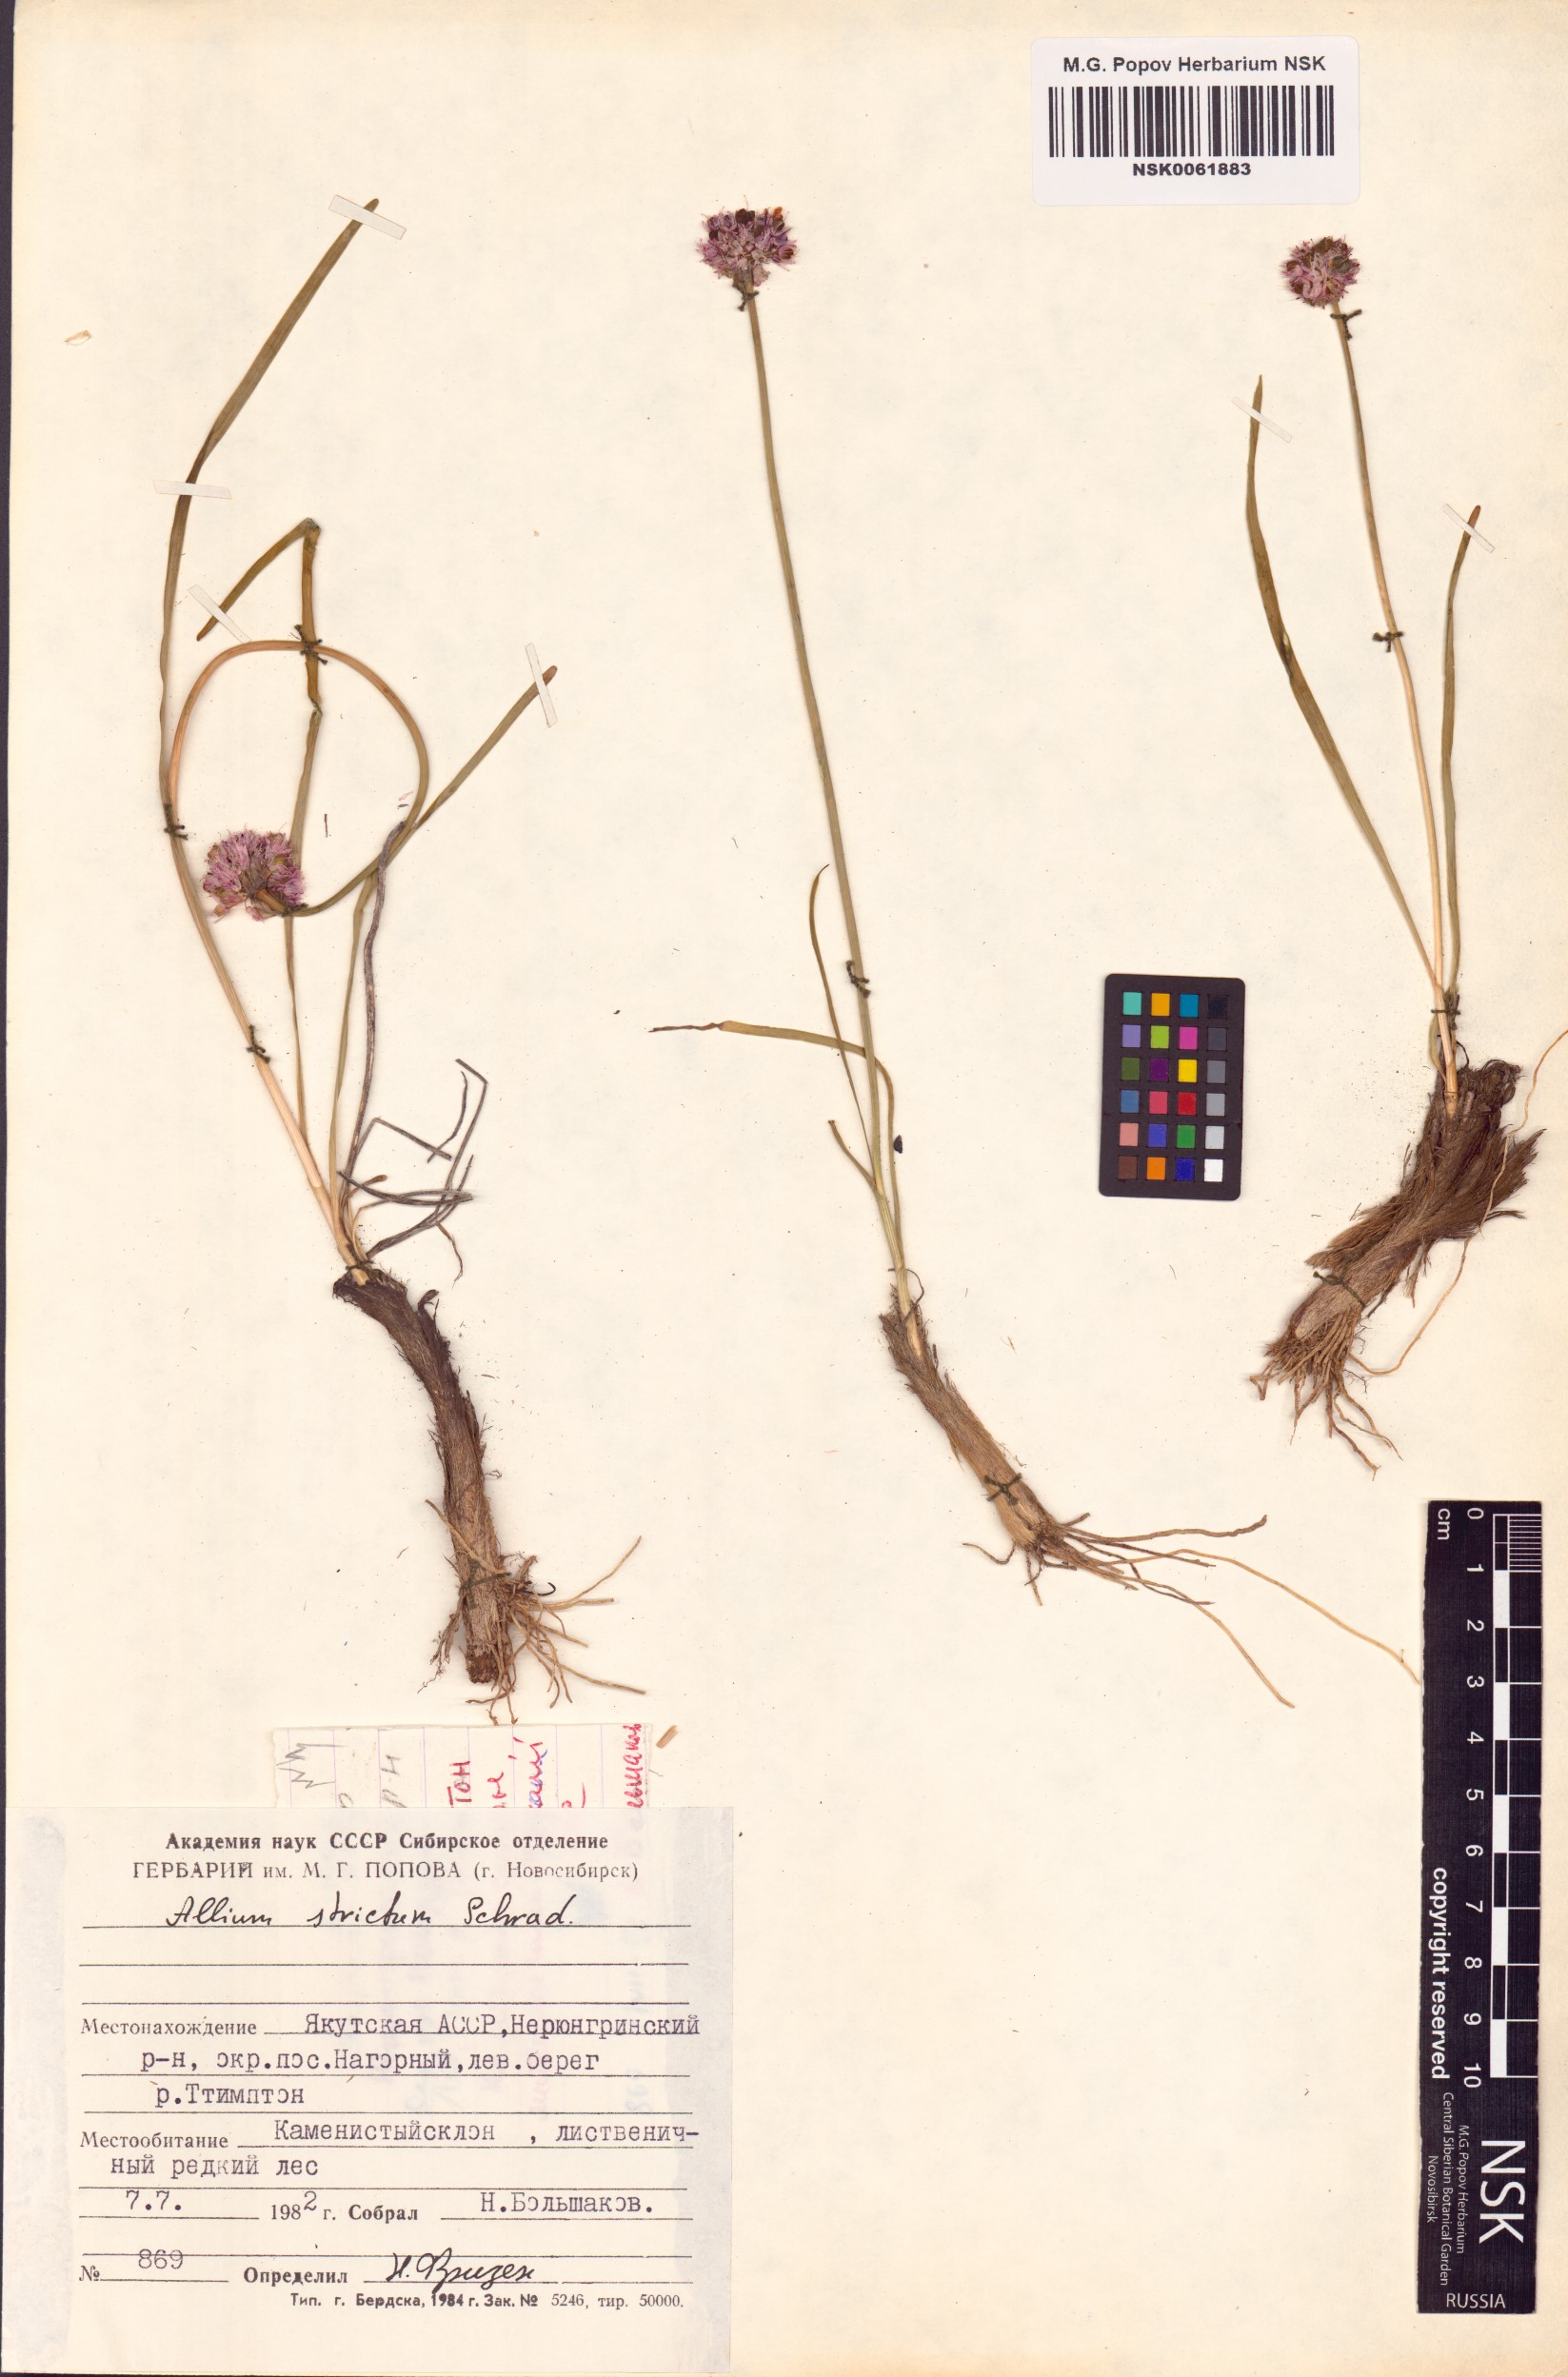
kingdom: Plantae
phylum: Tracheophyta
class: Liliopsida
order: Asparagales
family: Amaryllidaceae
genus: Allium
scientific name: Allium strictum
